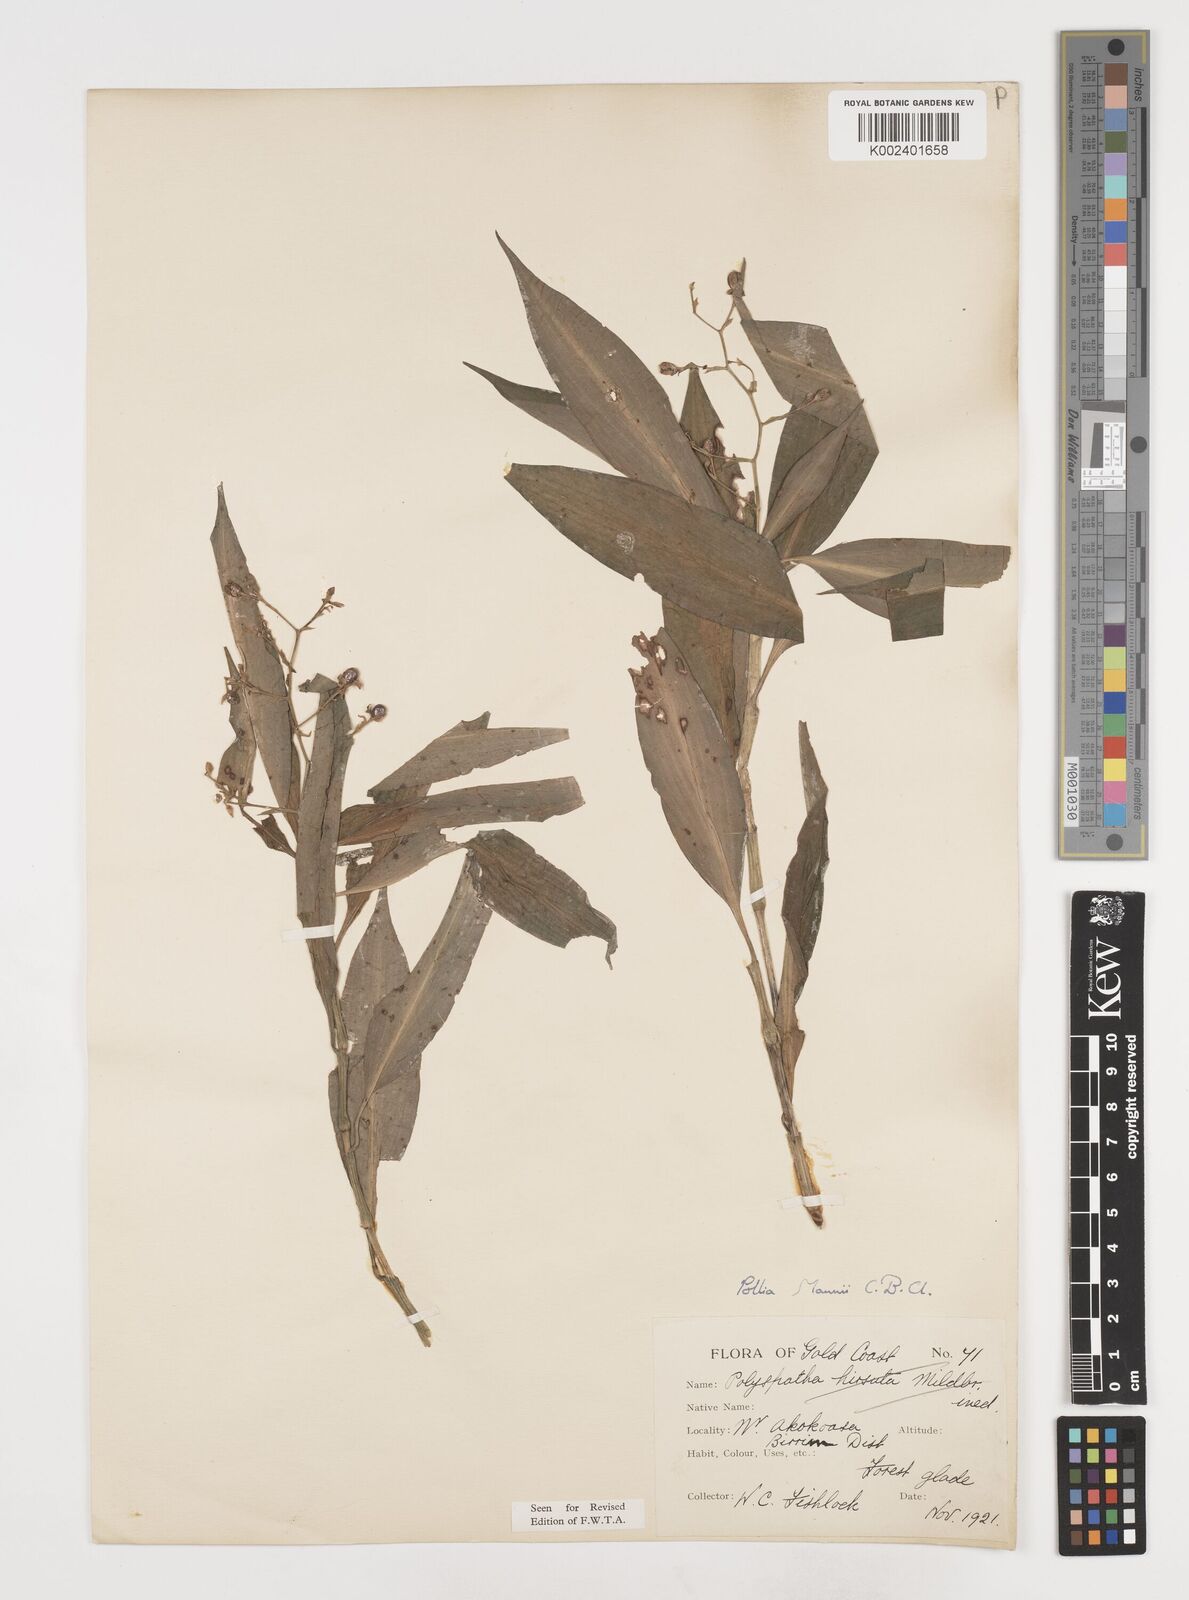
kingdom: Plantae
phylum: Tracheophyta
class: Liliopsida
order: Commelinales
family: Commelinaceae
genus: Pollia
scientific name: Pollia mannii
